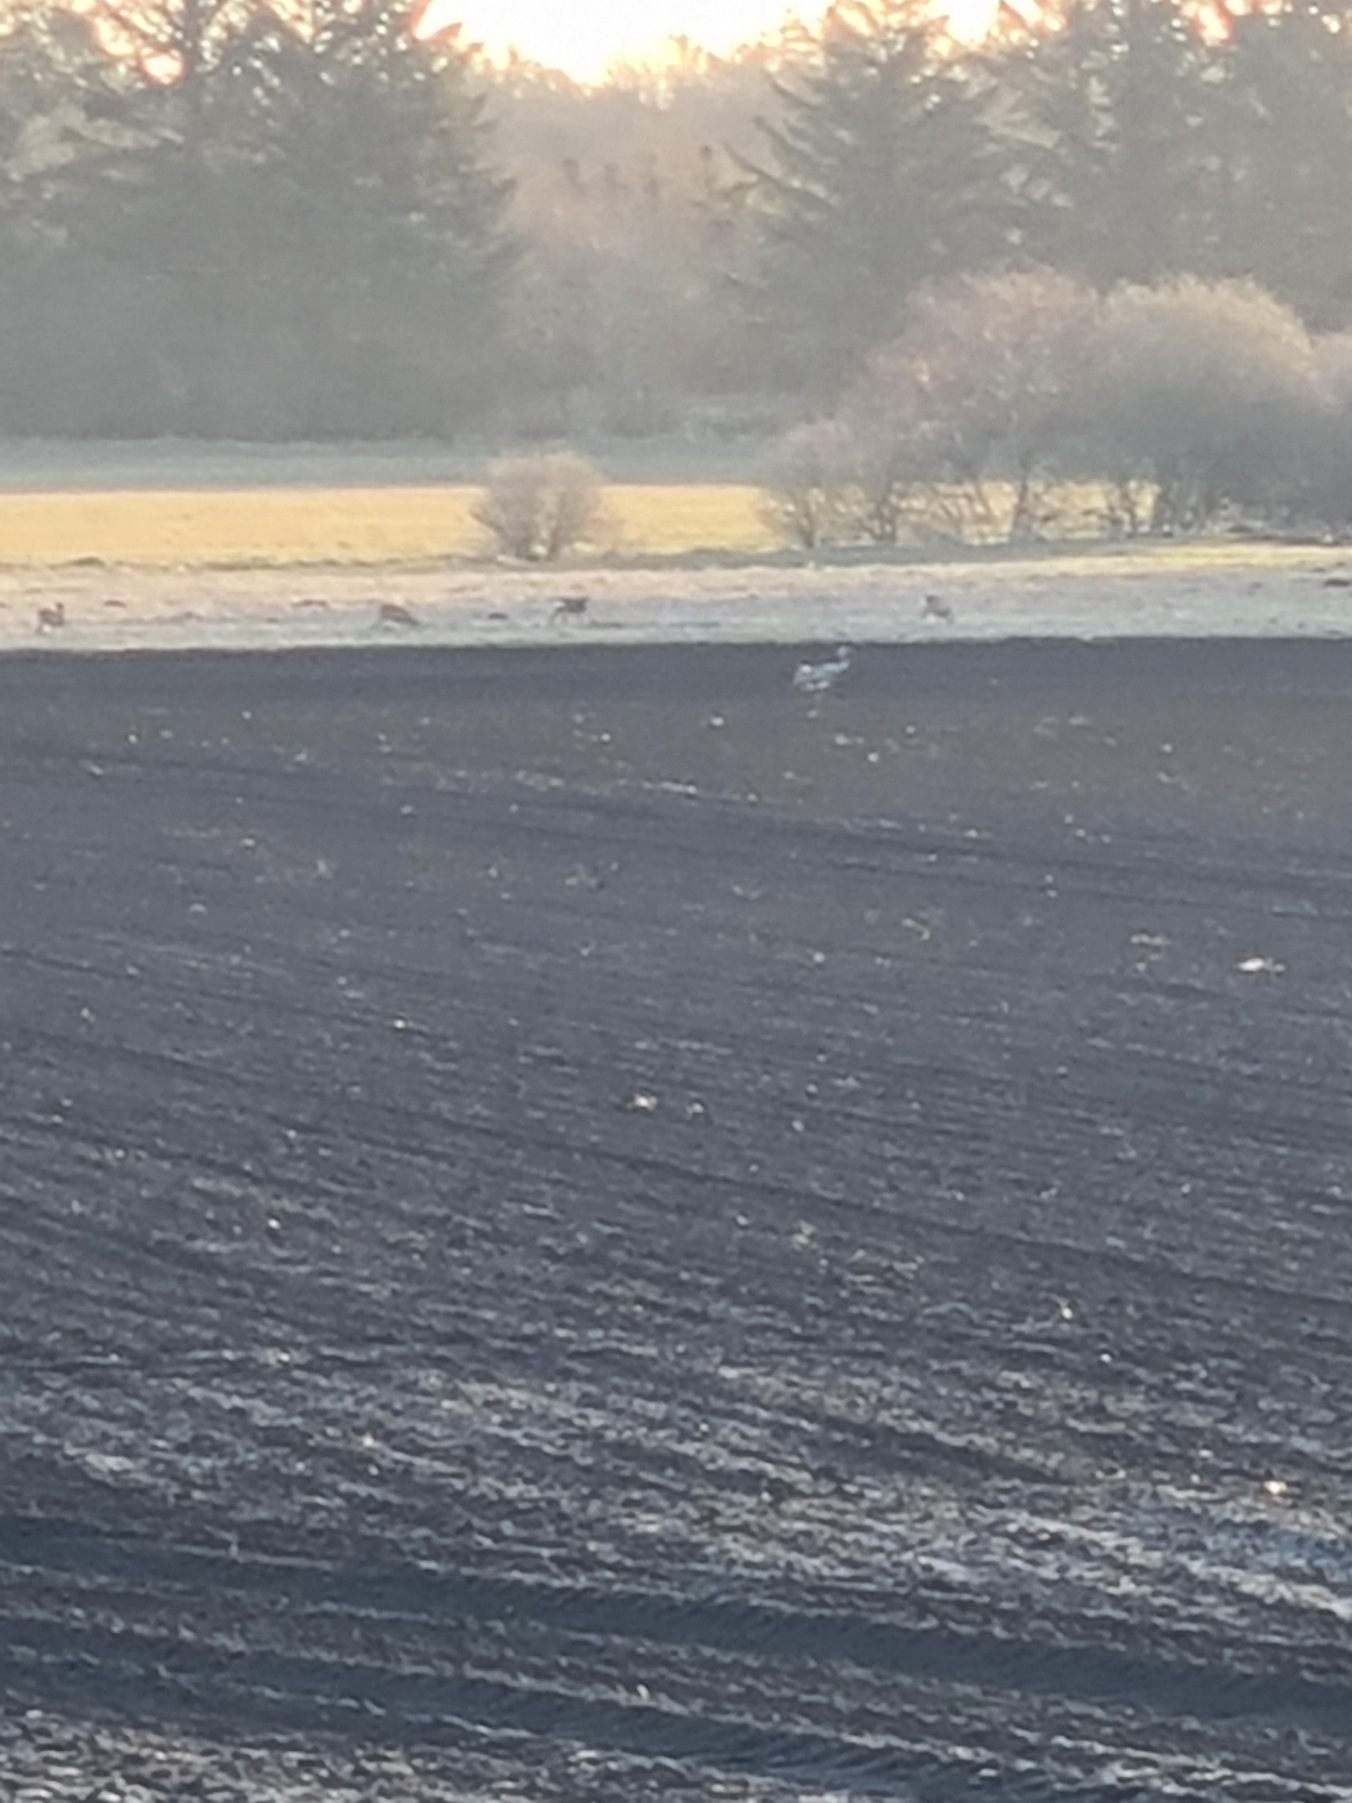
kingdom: Animalia
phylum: Chordata
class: Mammalia
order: Artiodactyla
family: Cervidae
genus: Capreolus
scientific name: Capreolus capreolus
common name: Rådyr
